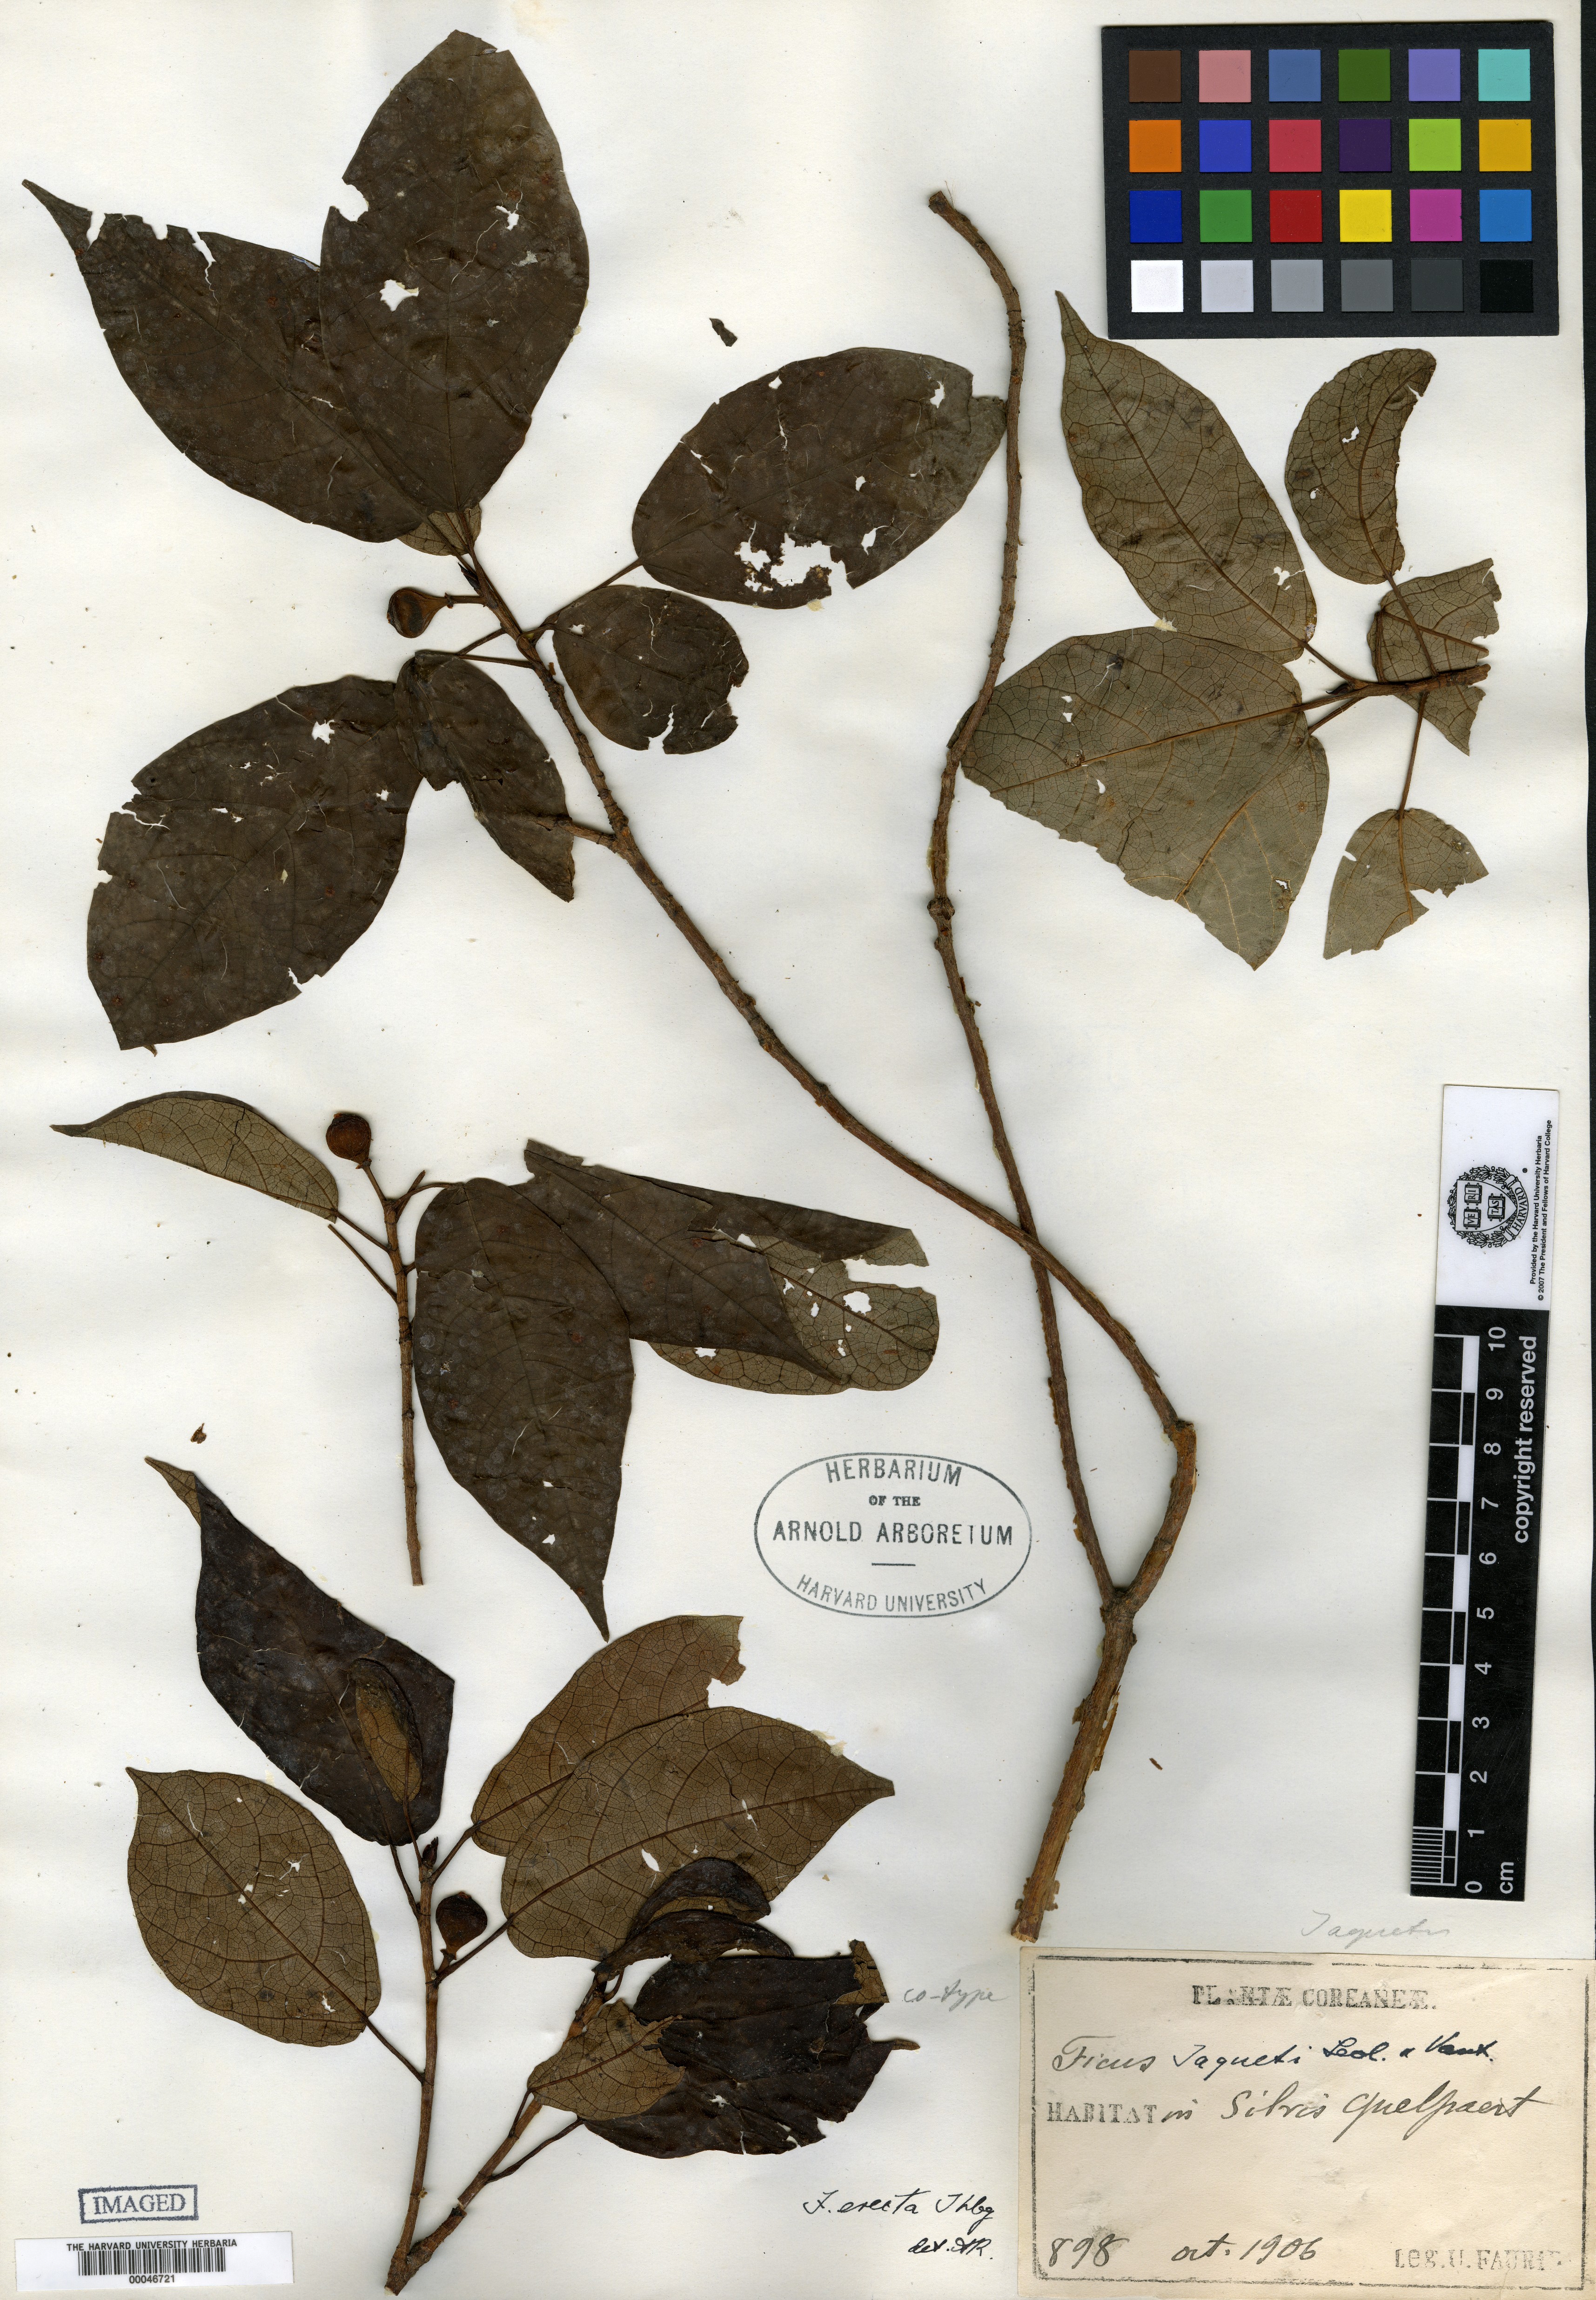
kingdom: Plantae
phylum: Tracheophyta
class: Magnoliopsida
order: Rosales
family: Moraceae
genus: Ficus
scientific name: Ficus erecta
